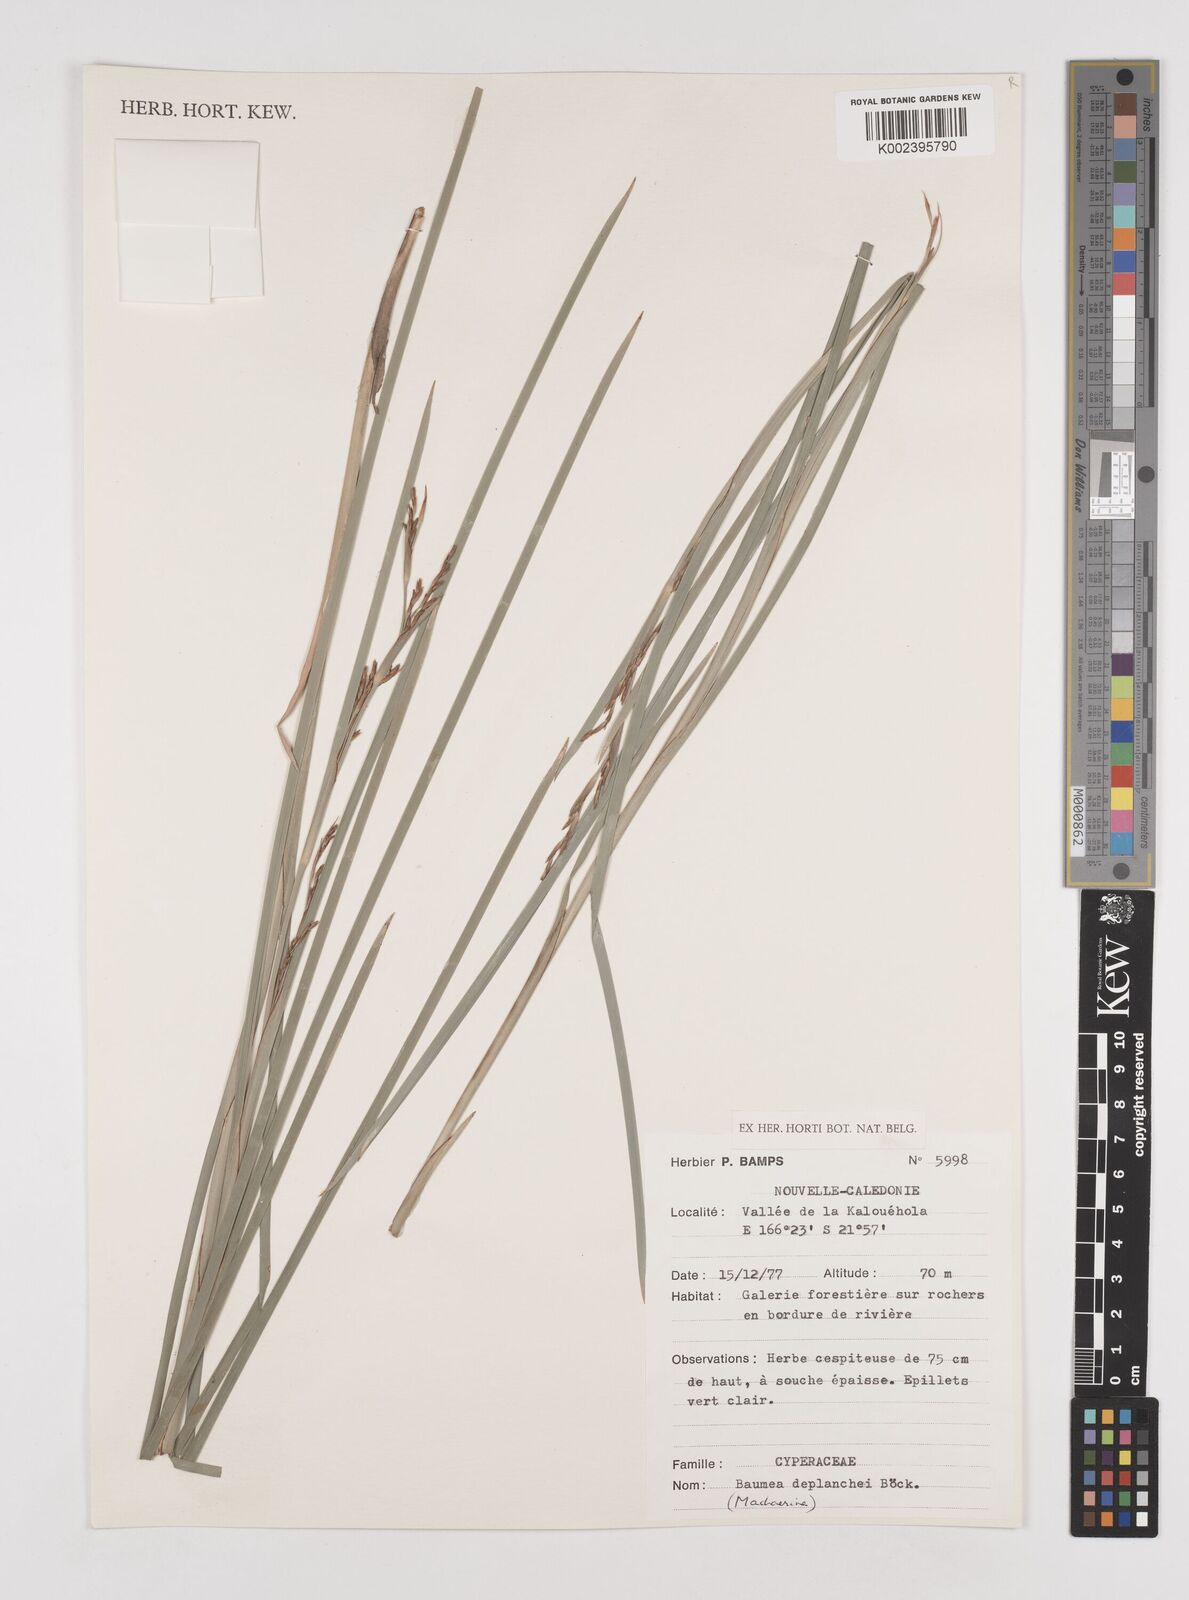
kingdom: Plantae
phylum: Tracheophyta
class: Liliopsida
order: Poales
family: Cyperaceae
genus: Machaerina
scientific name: Machaerina deplanchei
